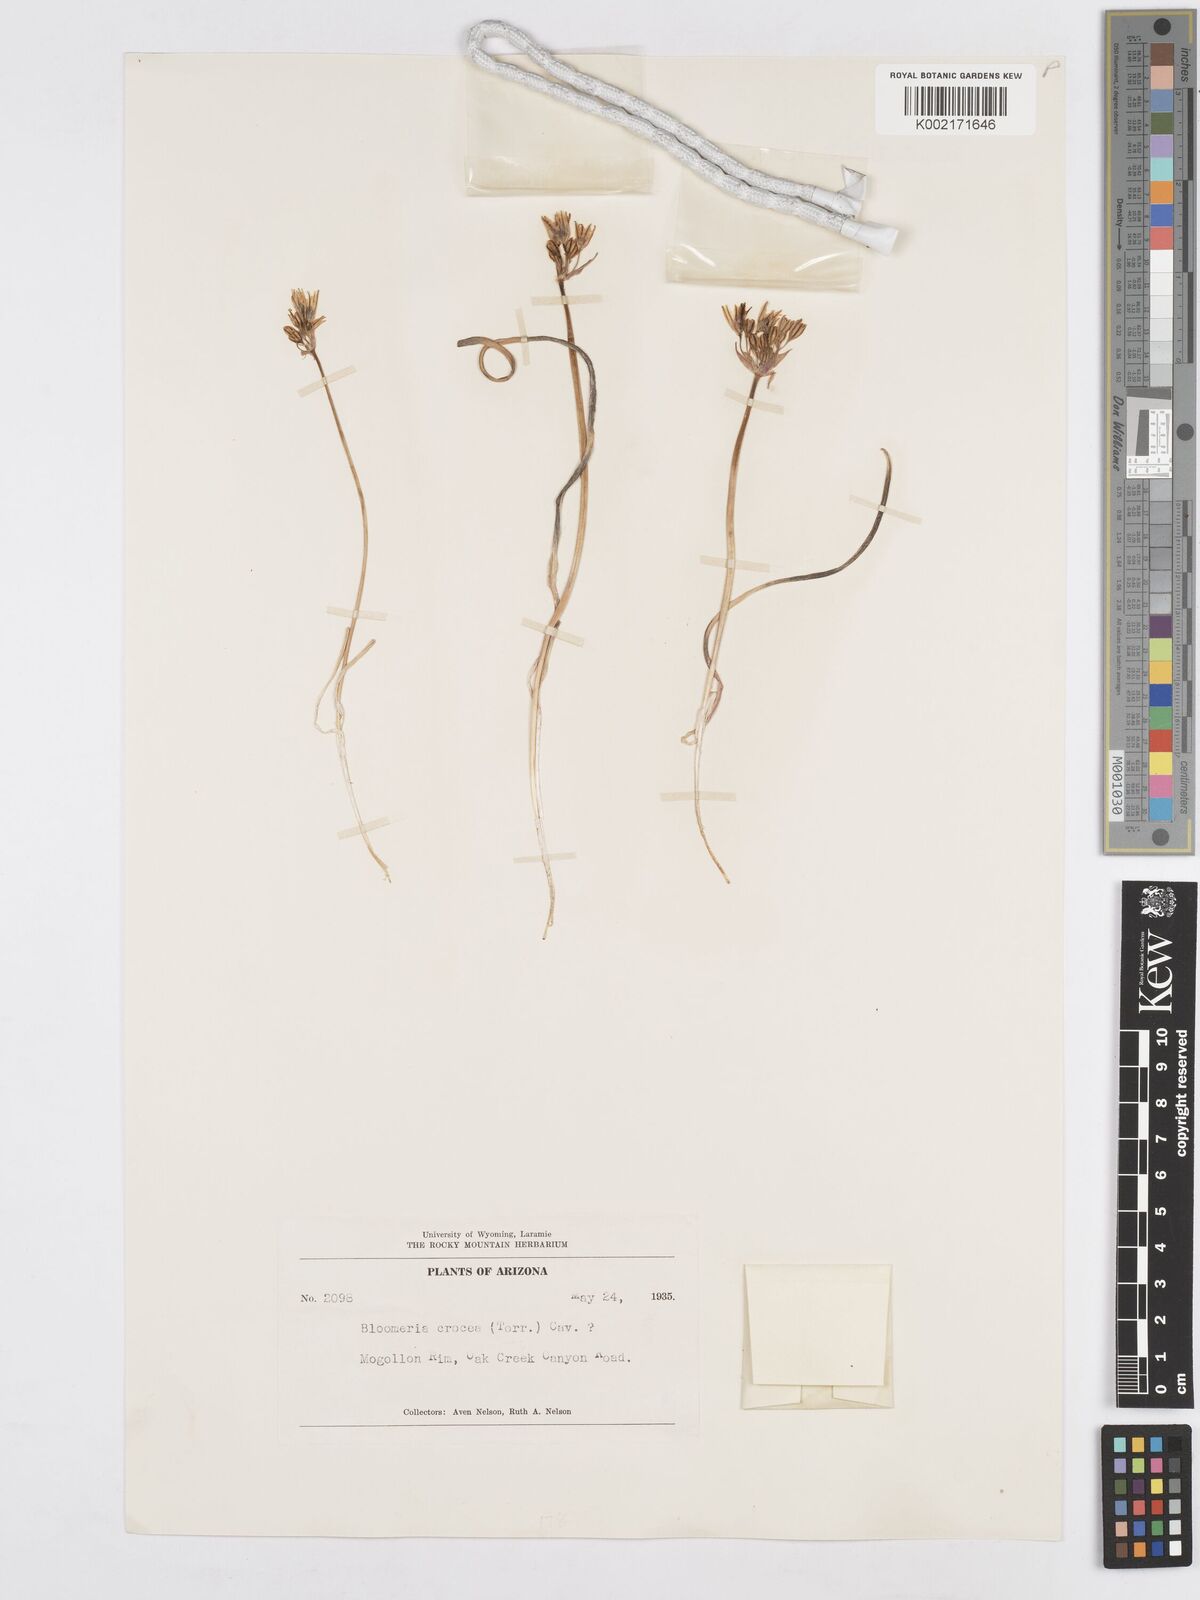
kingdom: Plantae
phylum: Tracheophyta
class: Liliopsida
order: Asparagales
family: Asparagaceae
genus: Bloomeria
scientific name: Bloomeria crocea
